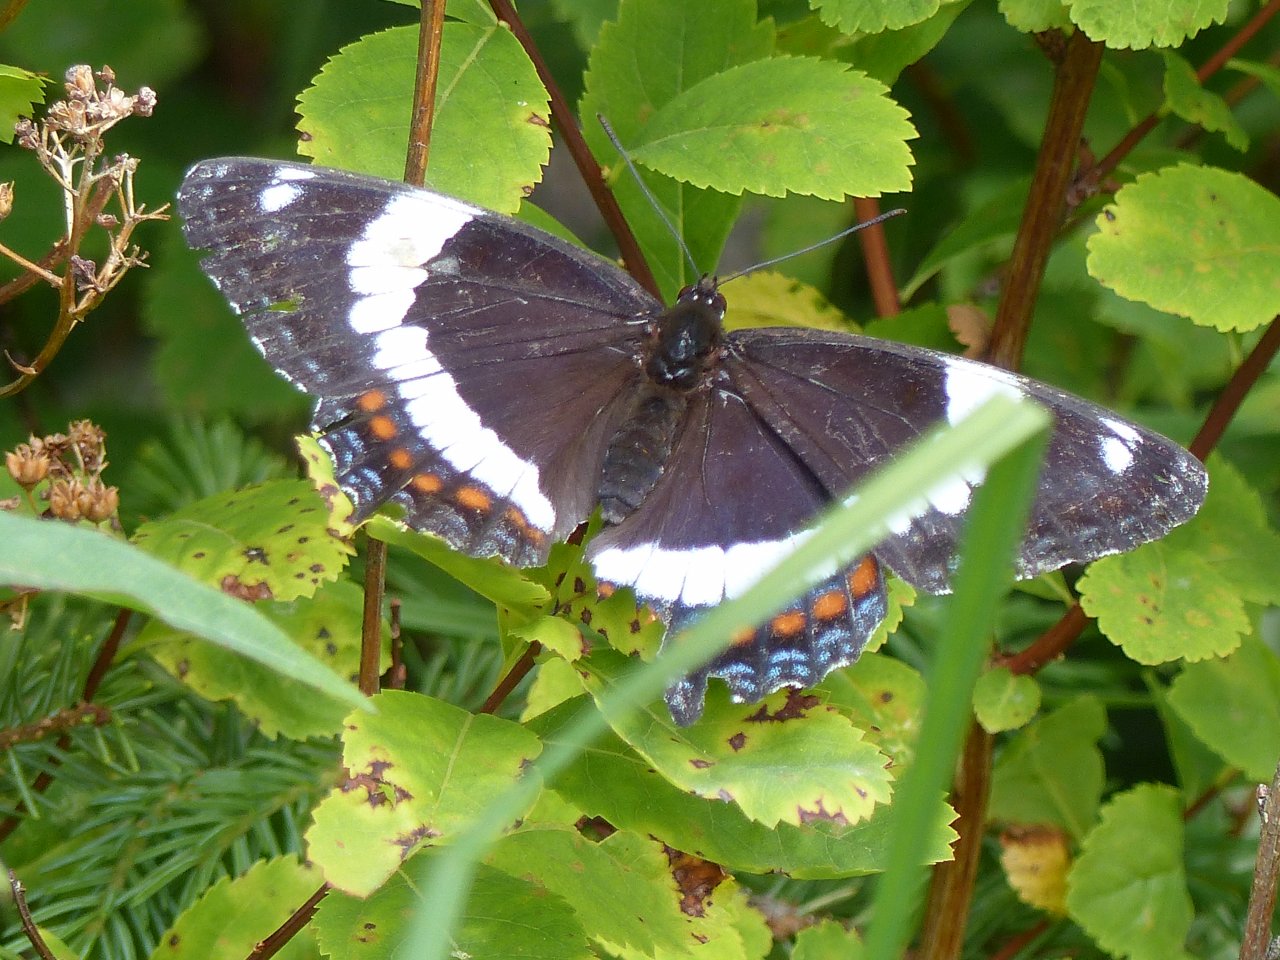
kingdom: Animalia
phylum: Arthropoda
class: Insecta
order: Lepidoptera
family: Nymphalidae
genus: Limenitis
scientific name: Limenitis arthemis
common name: Red-spotted Admiral
